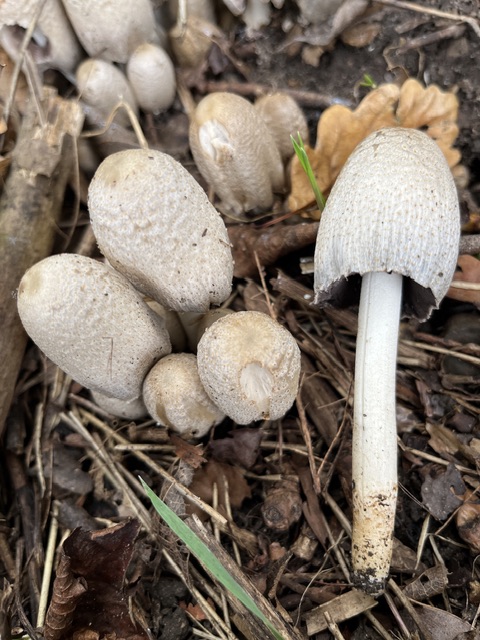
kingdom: Fungi
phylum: Basidiomycota
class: Agaricomycetes
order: Agaricales
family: Psathyrellaceae
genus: Coprinopsis
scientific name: Coprinopsis romagnesiana
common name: brunskællet blækhat
